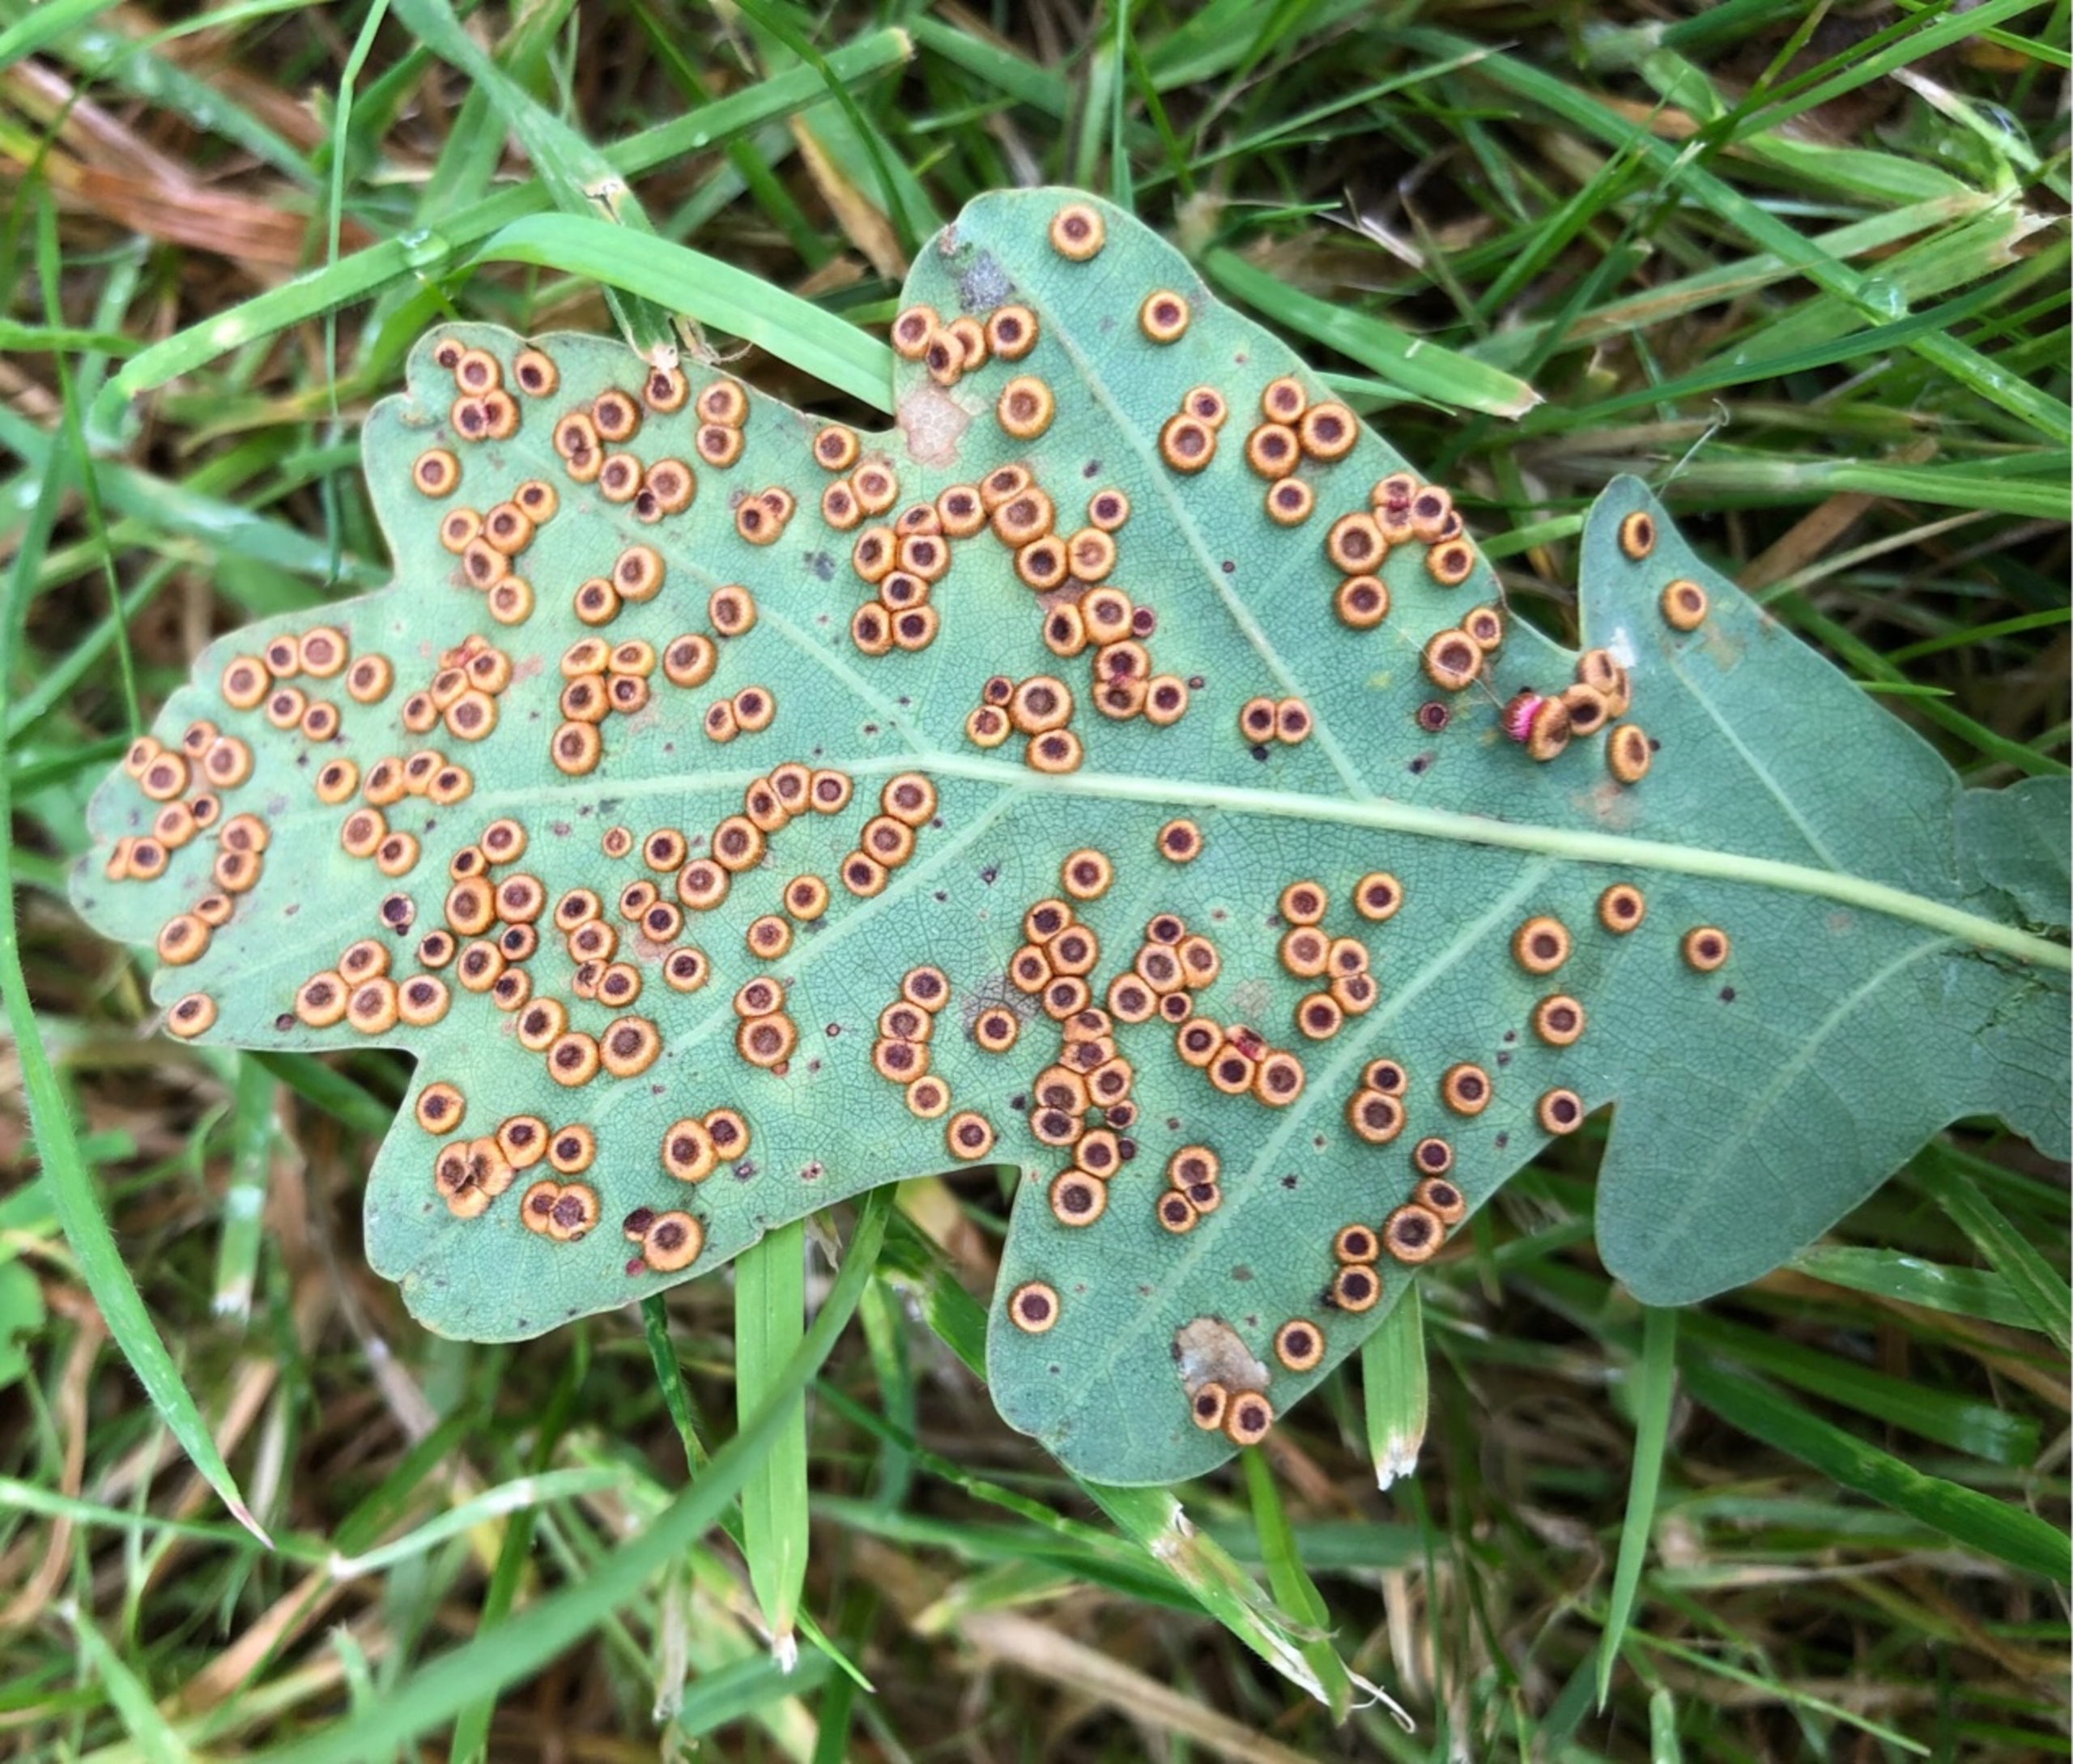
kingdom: Animalia
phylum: Arthropoda
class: Insecta
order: Hymenoptera
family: Cynipidae
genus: Neuroterus
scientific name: Neuroterus numismalis
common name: Knapgalhveps
